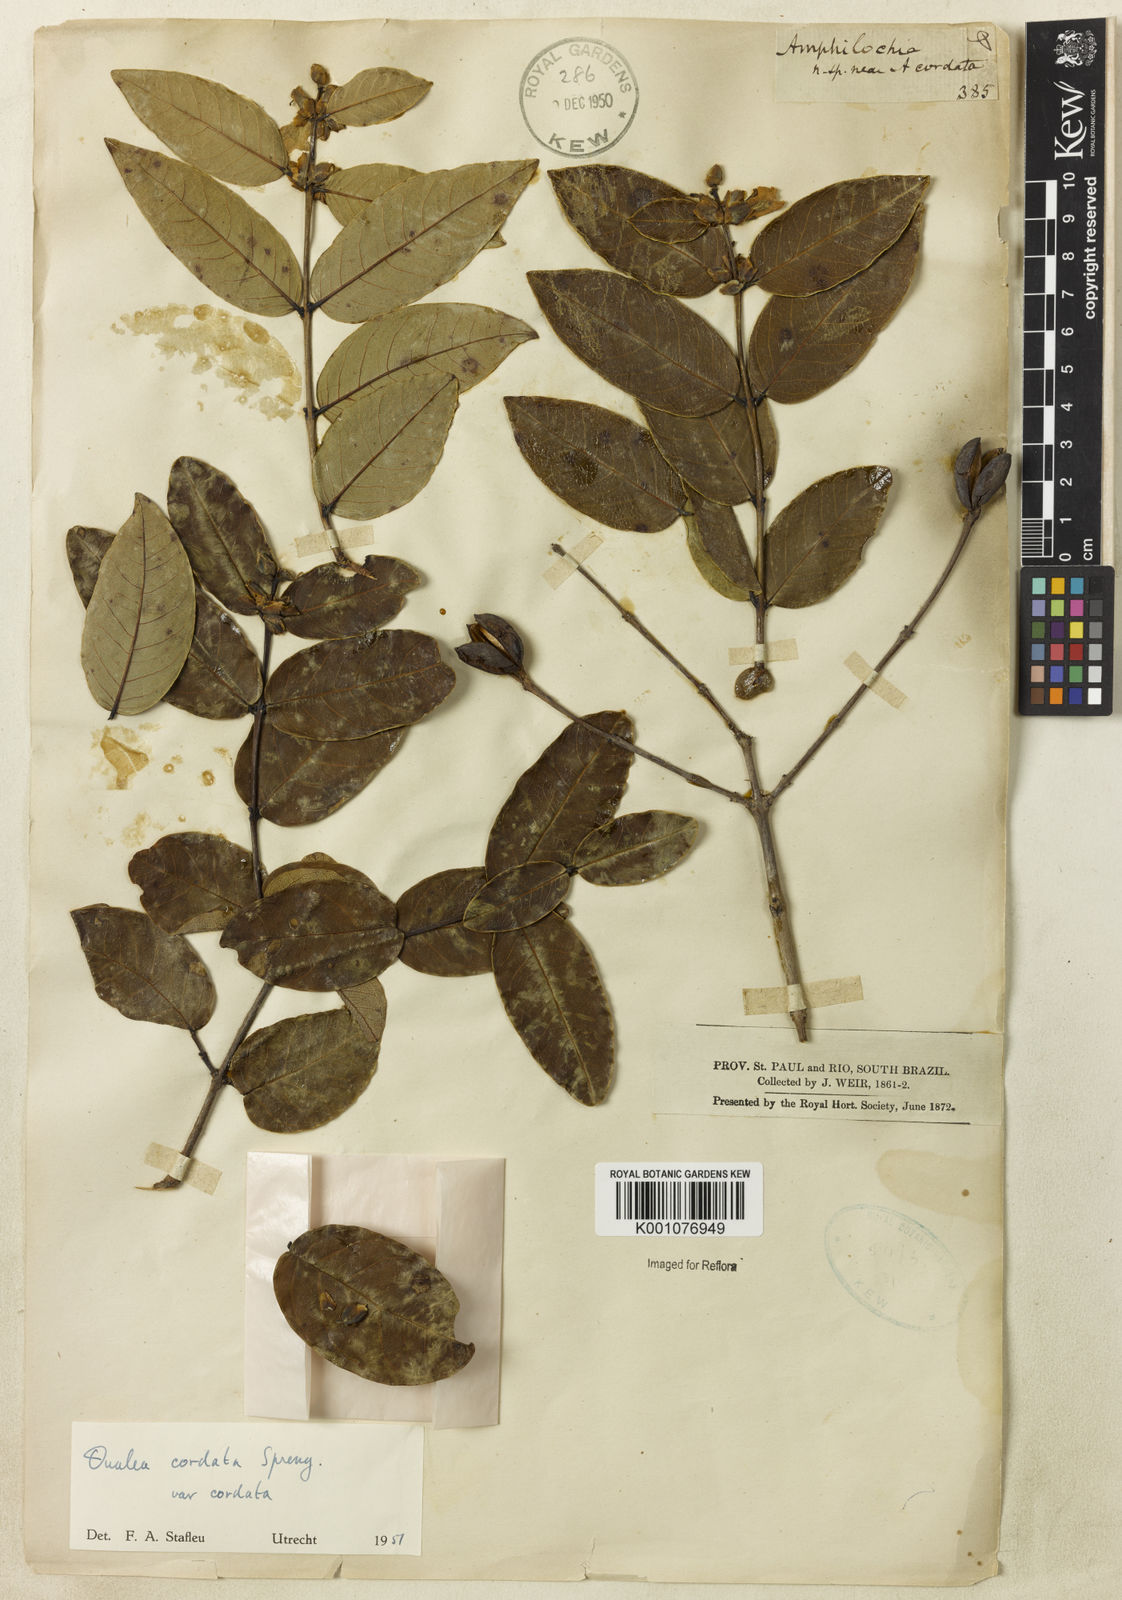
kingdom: Plantae
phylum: Tracheophyta
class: Magnoliopsida
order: Myrtales
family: Vochysiaceae
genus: Qualea
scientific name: Qualea cordata
